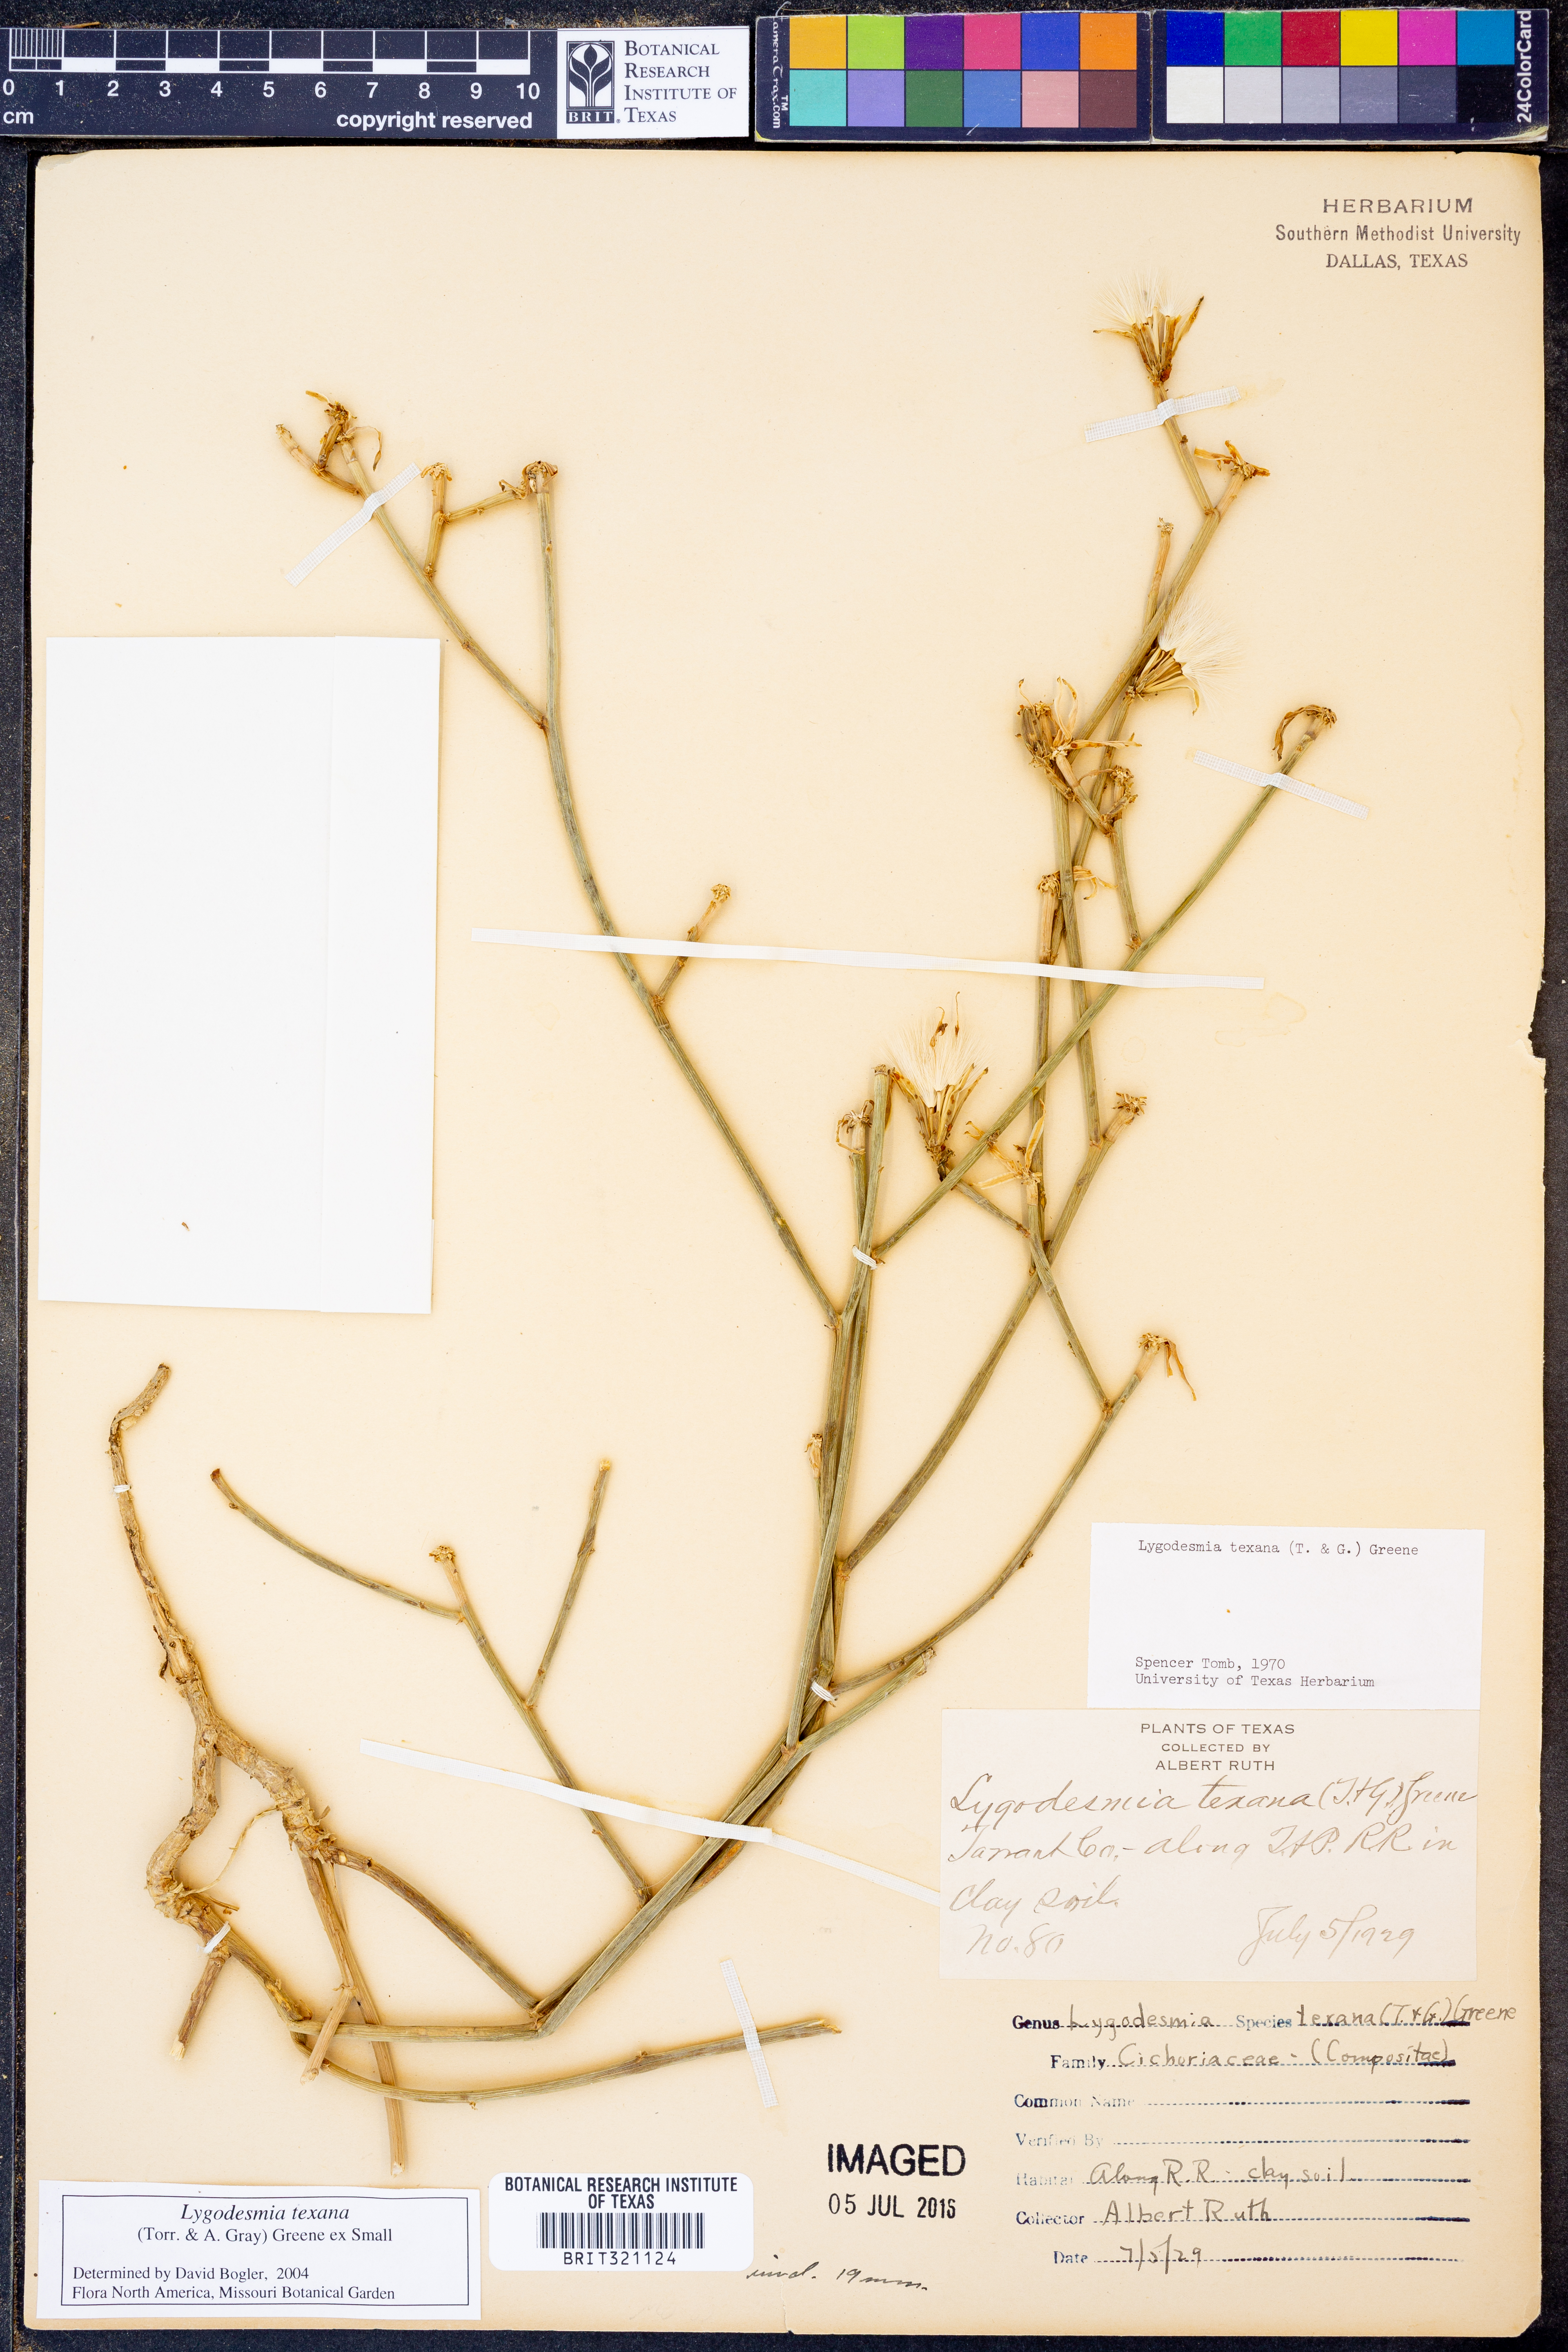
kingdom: Plantae
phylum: Tracheophyta
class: Magnoliopsida
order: Asterales
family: Asteraceae
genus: Lygodesmia
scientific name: Lygodesmia texana
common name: Texas skeleton-plant
